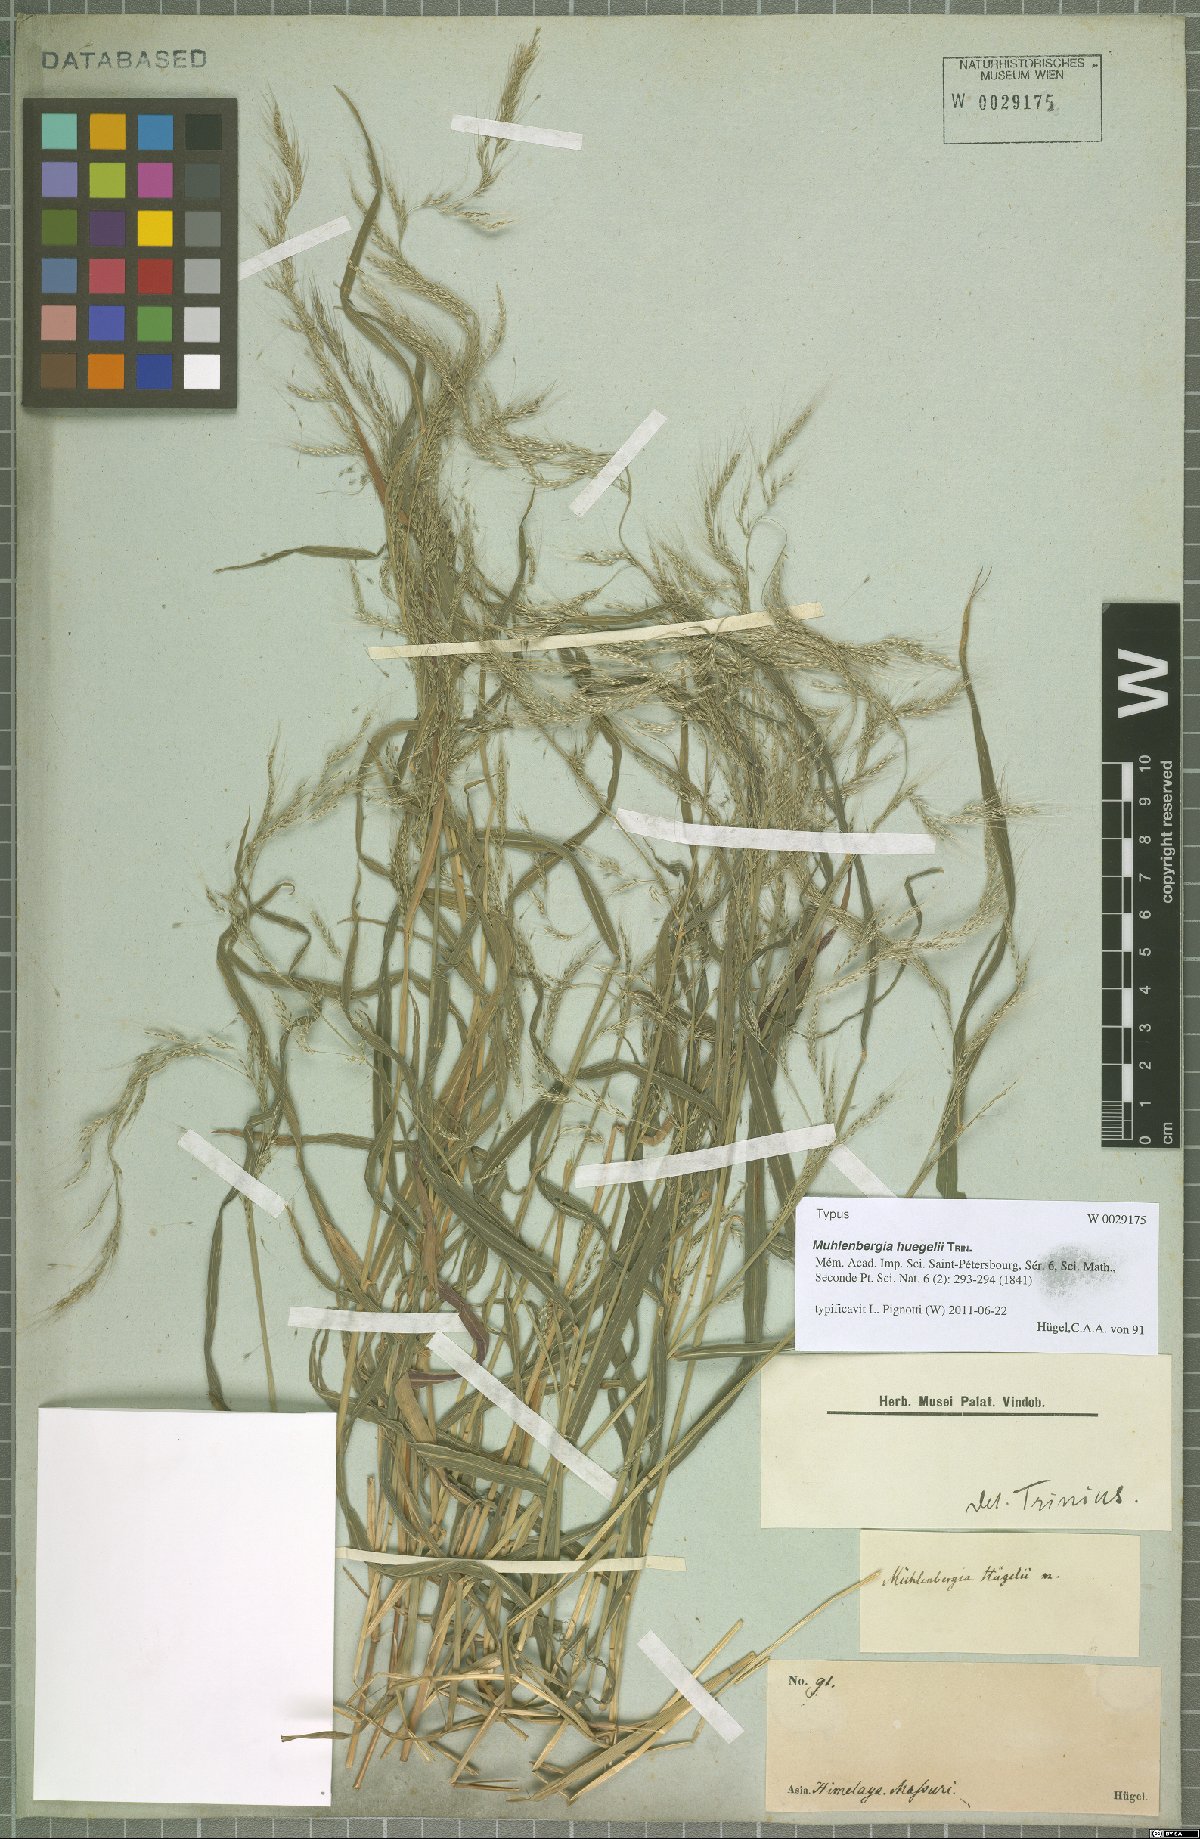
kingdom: Plantae
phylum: Tracheophyta
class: Liliopsida
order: Poales
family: Poaceae
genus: Muhlenbergia
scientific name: Muhlenbergia huegelii
